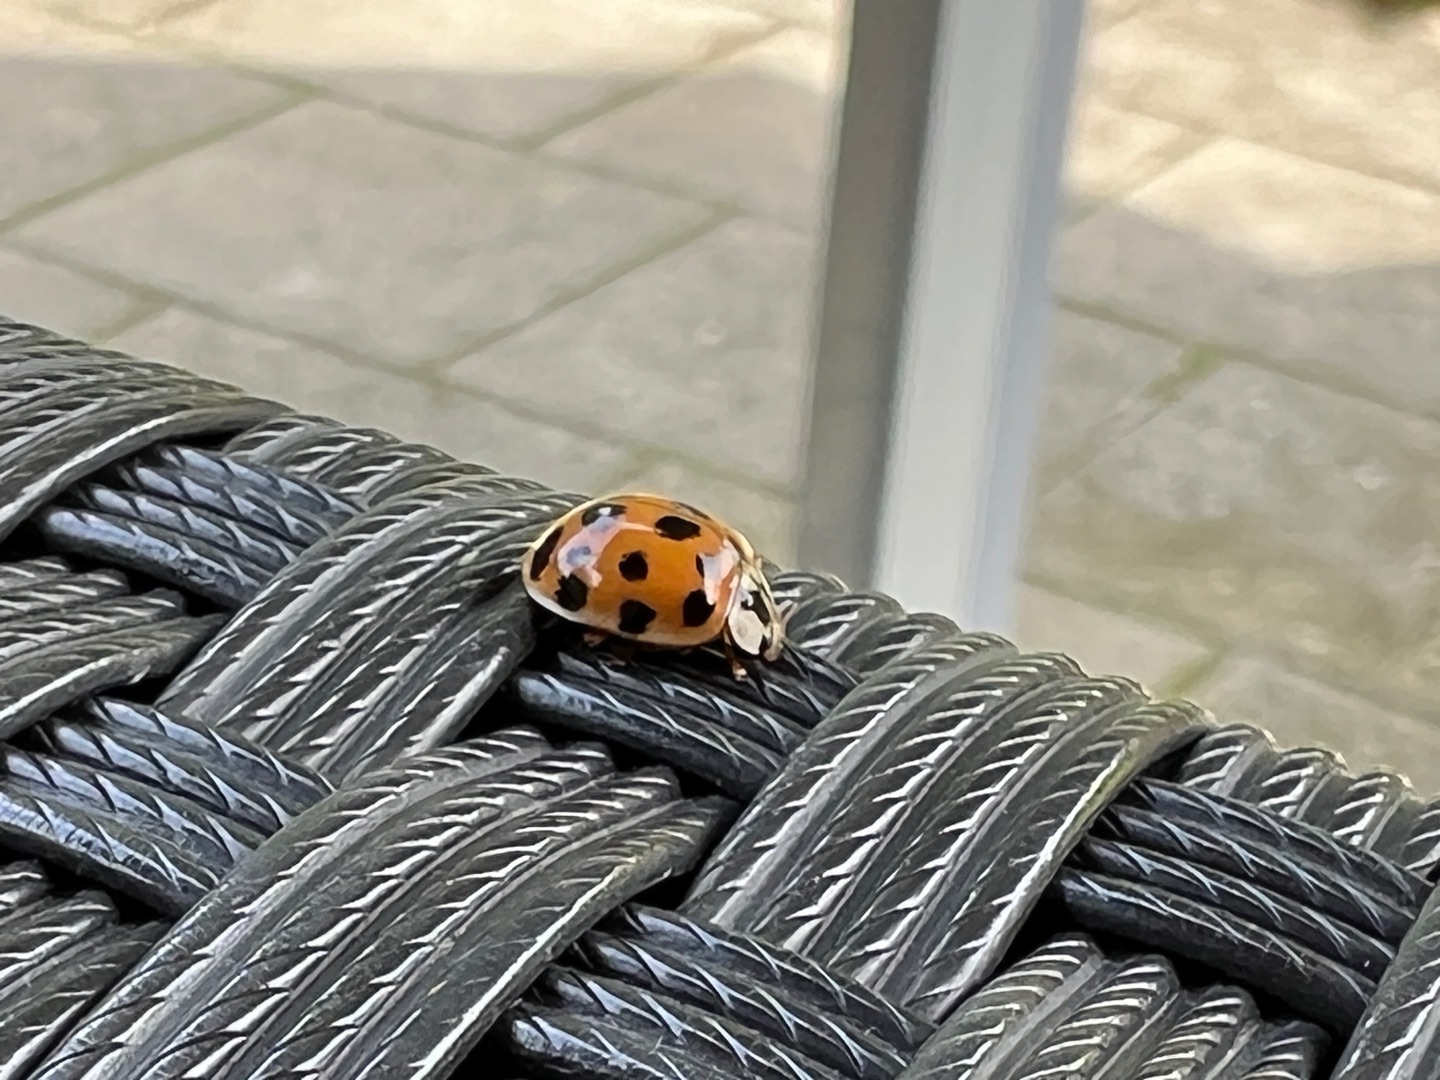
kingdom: Animalia
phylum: Arthropoda
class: Insecta
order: Coleoptera
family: Coccinellidae
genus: Harmonia
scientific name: Harmonia axyridis
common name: Harlekinmariehøne
